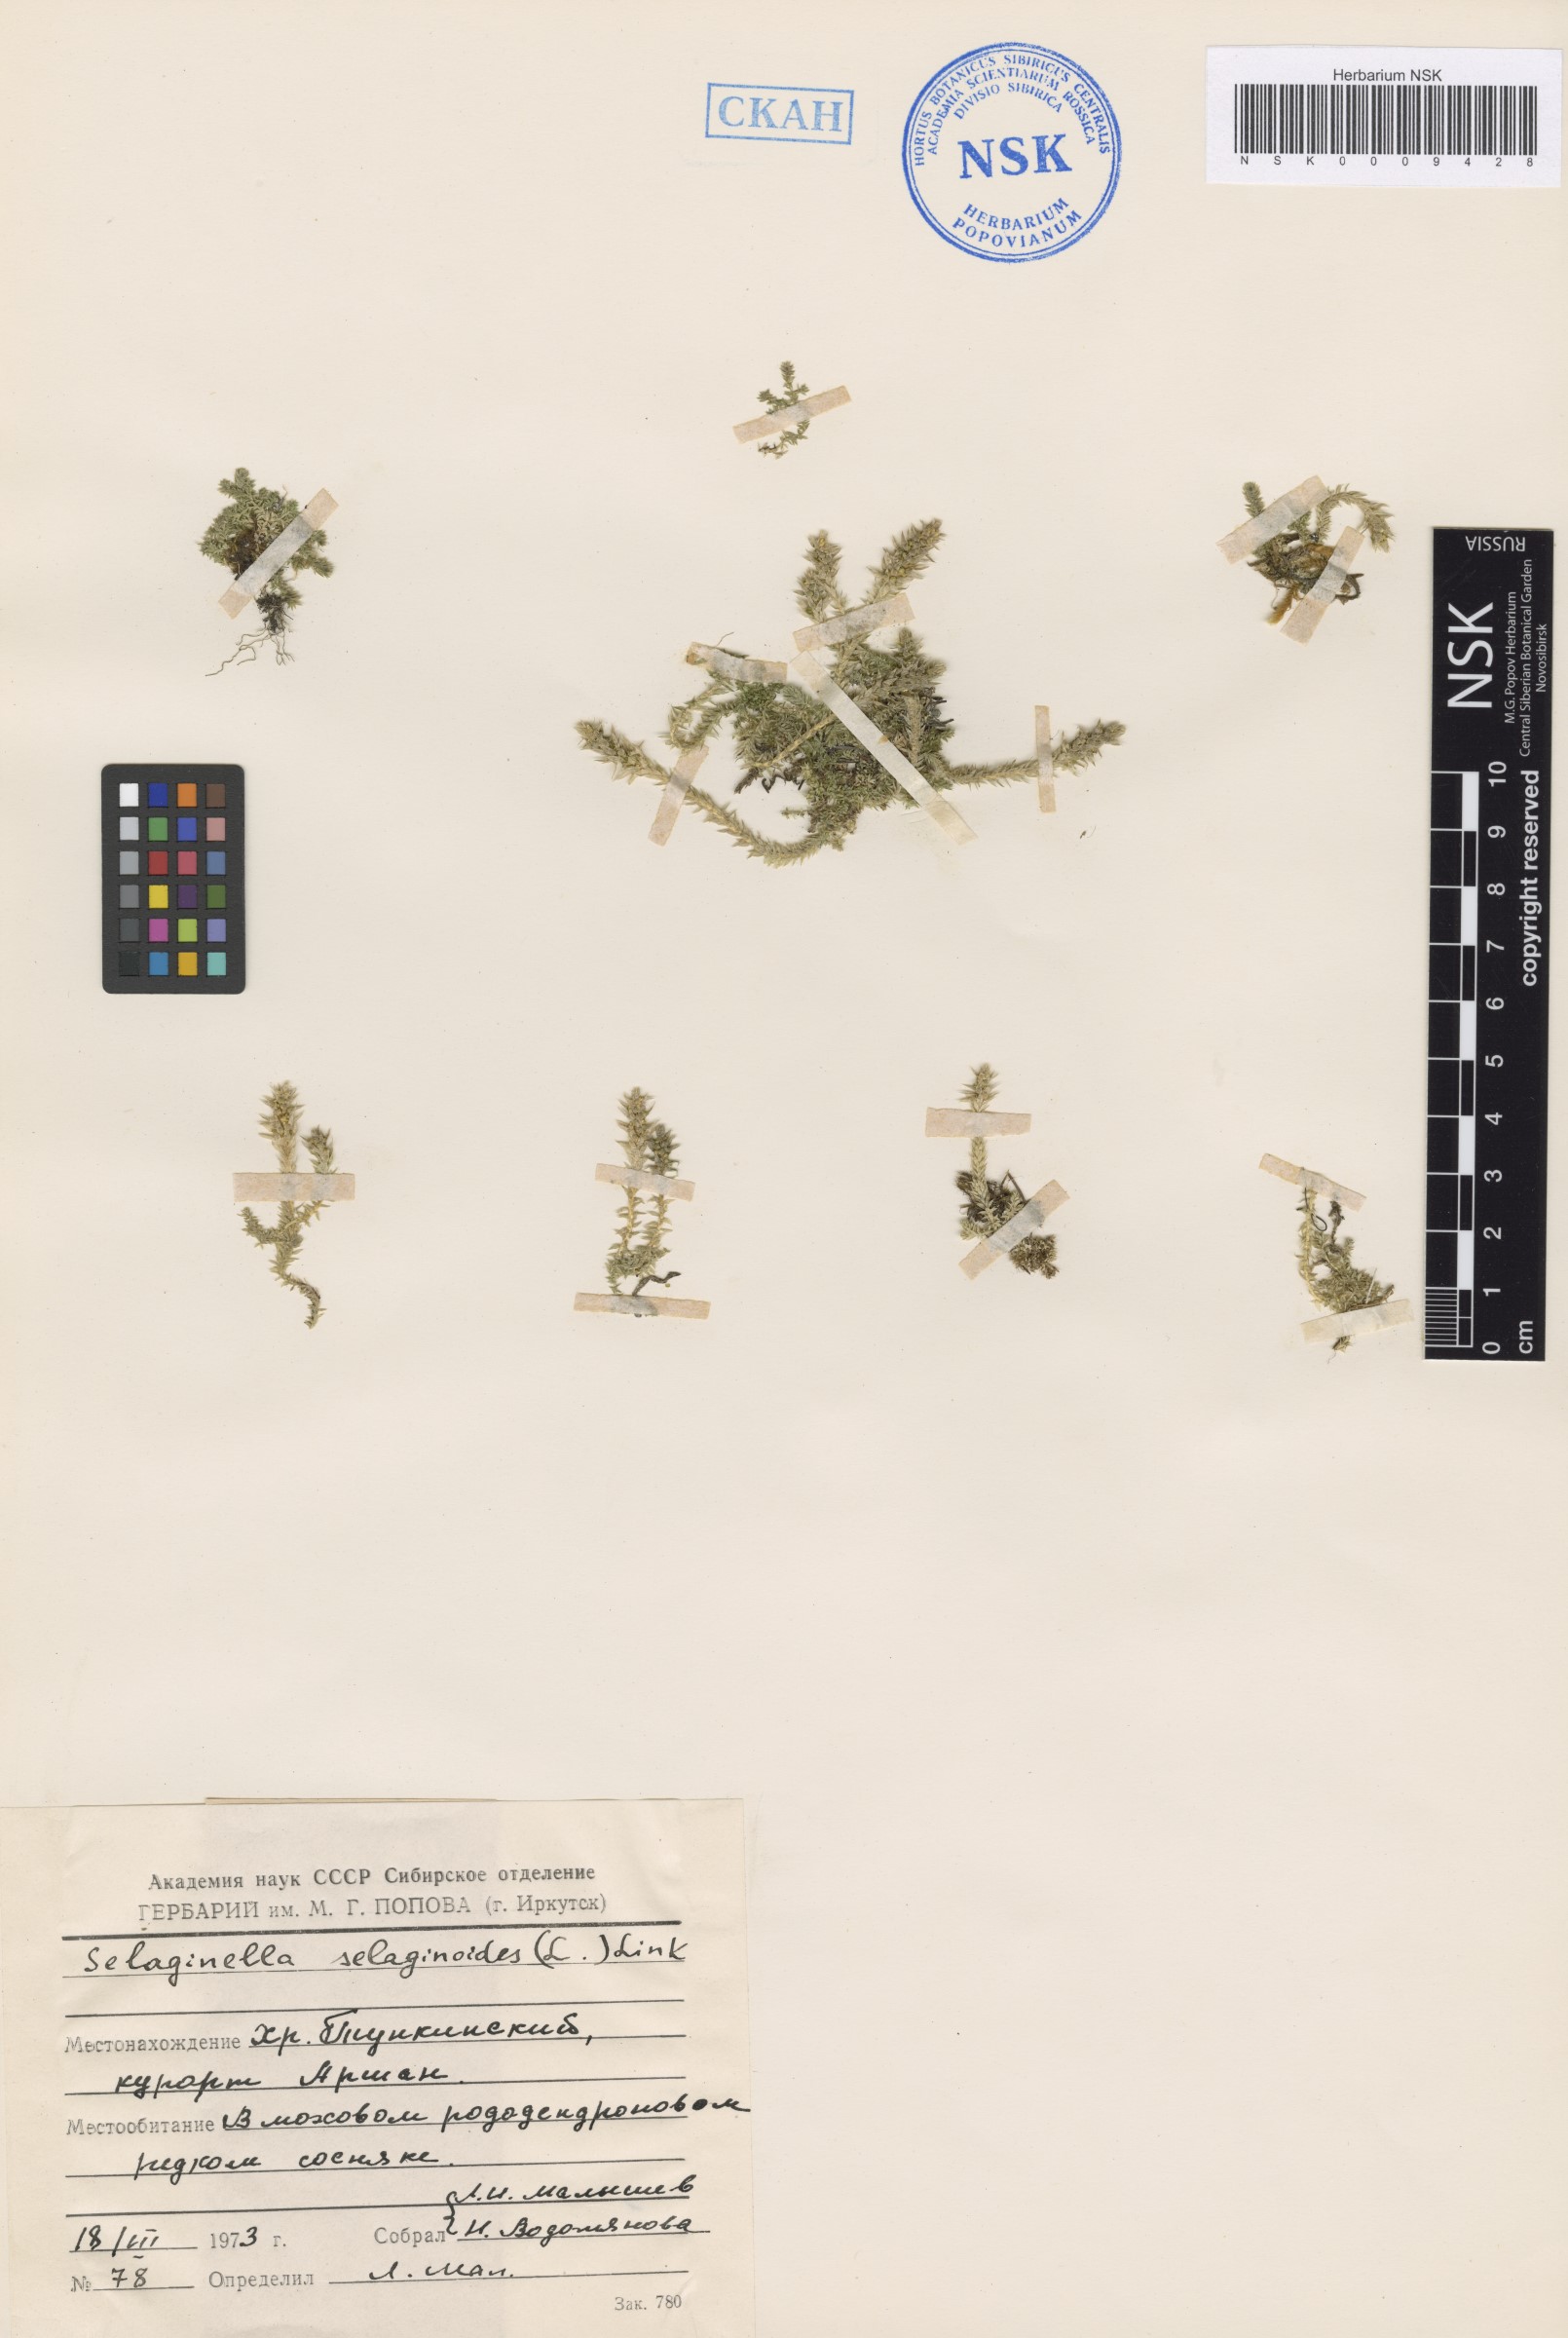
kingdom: Plantae
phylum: Tracheophyta
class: Lycopodiopsida
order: Selaginellales
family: Selaginellaceae
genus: Selaginella
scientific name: Selaginella selaginoides
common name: Prickly mountain-moss
